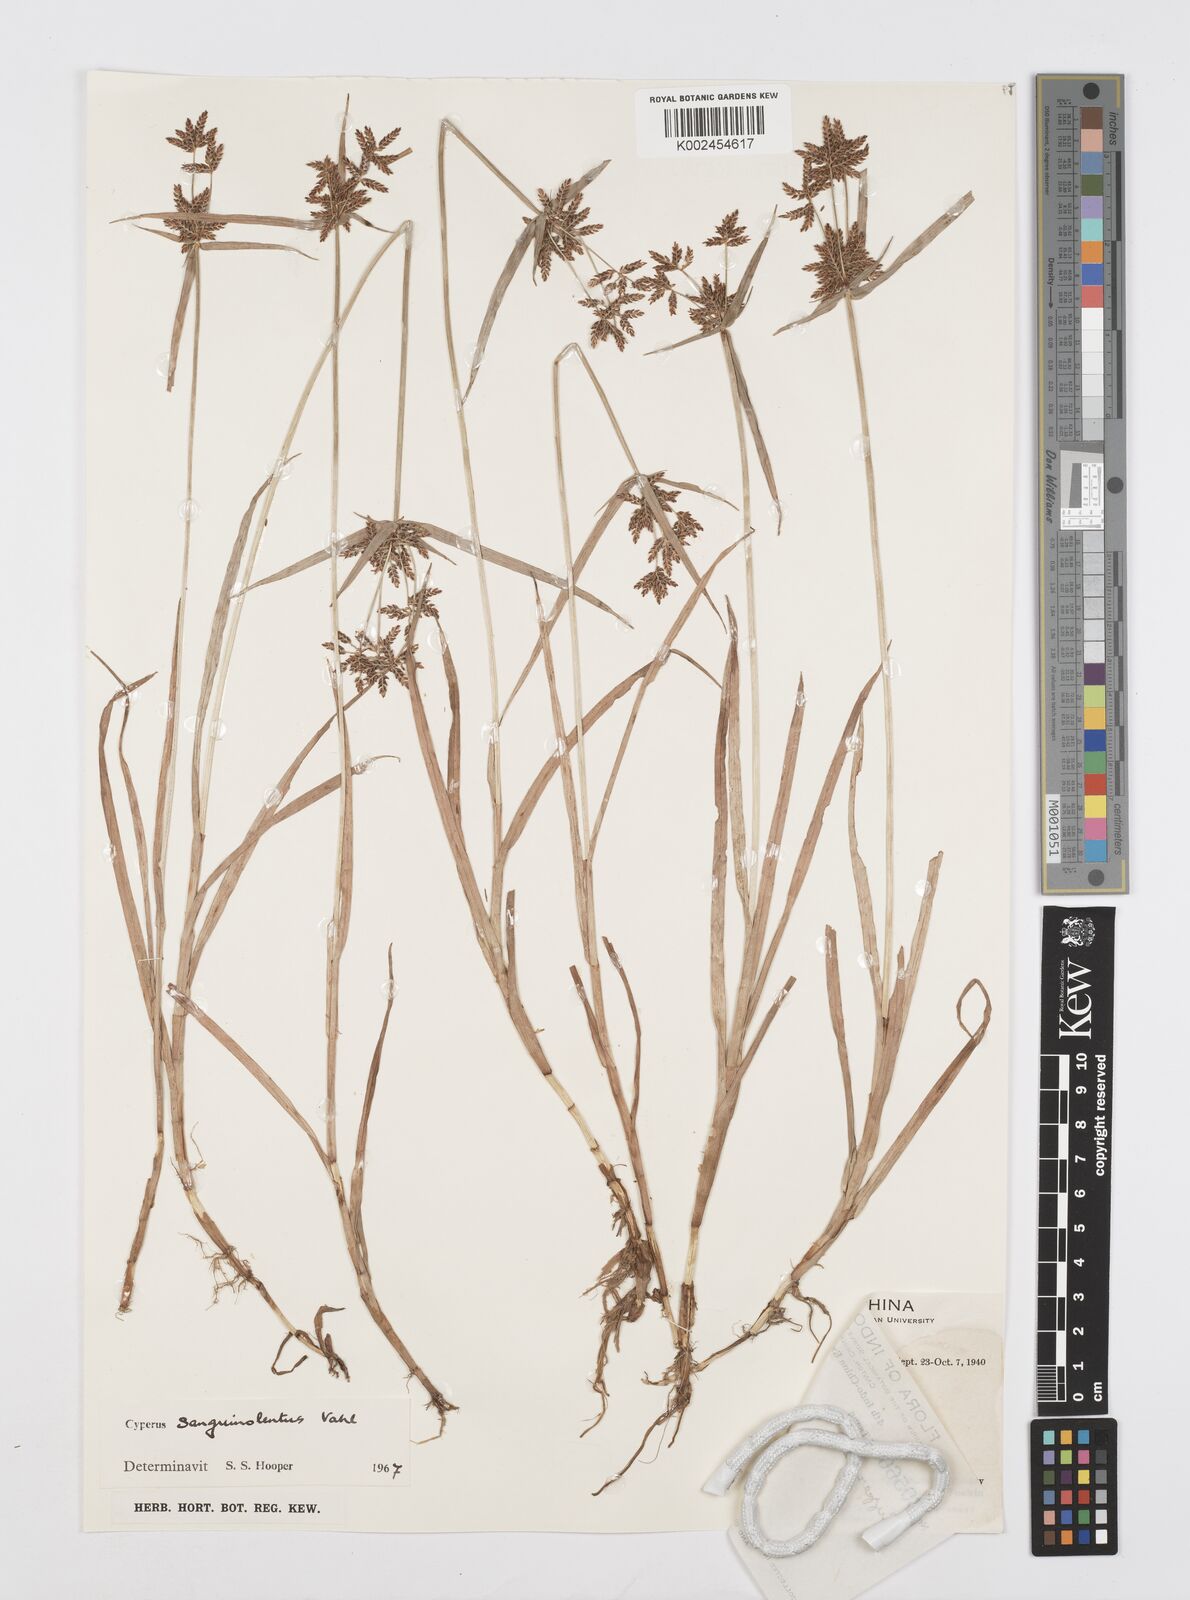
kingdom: Plantae
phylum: Tracheophyta
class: Liliopsida
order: Poales
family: Cyperaceae
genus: Cyperus
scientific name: Cyperus sanguinolentus
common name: Purpleglume flatsedge
